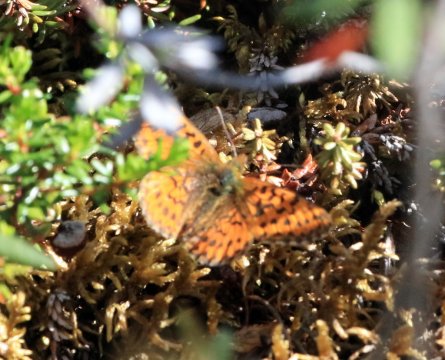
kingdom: Animalia
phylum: Arthropoda
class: Insecta
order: Lepidoptera
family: Nymphalidae
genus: Boloria
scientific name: Boloria
